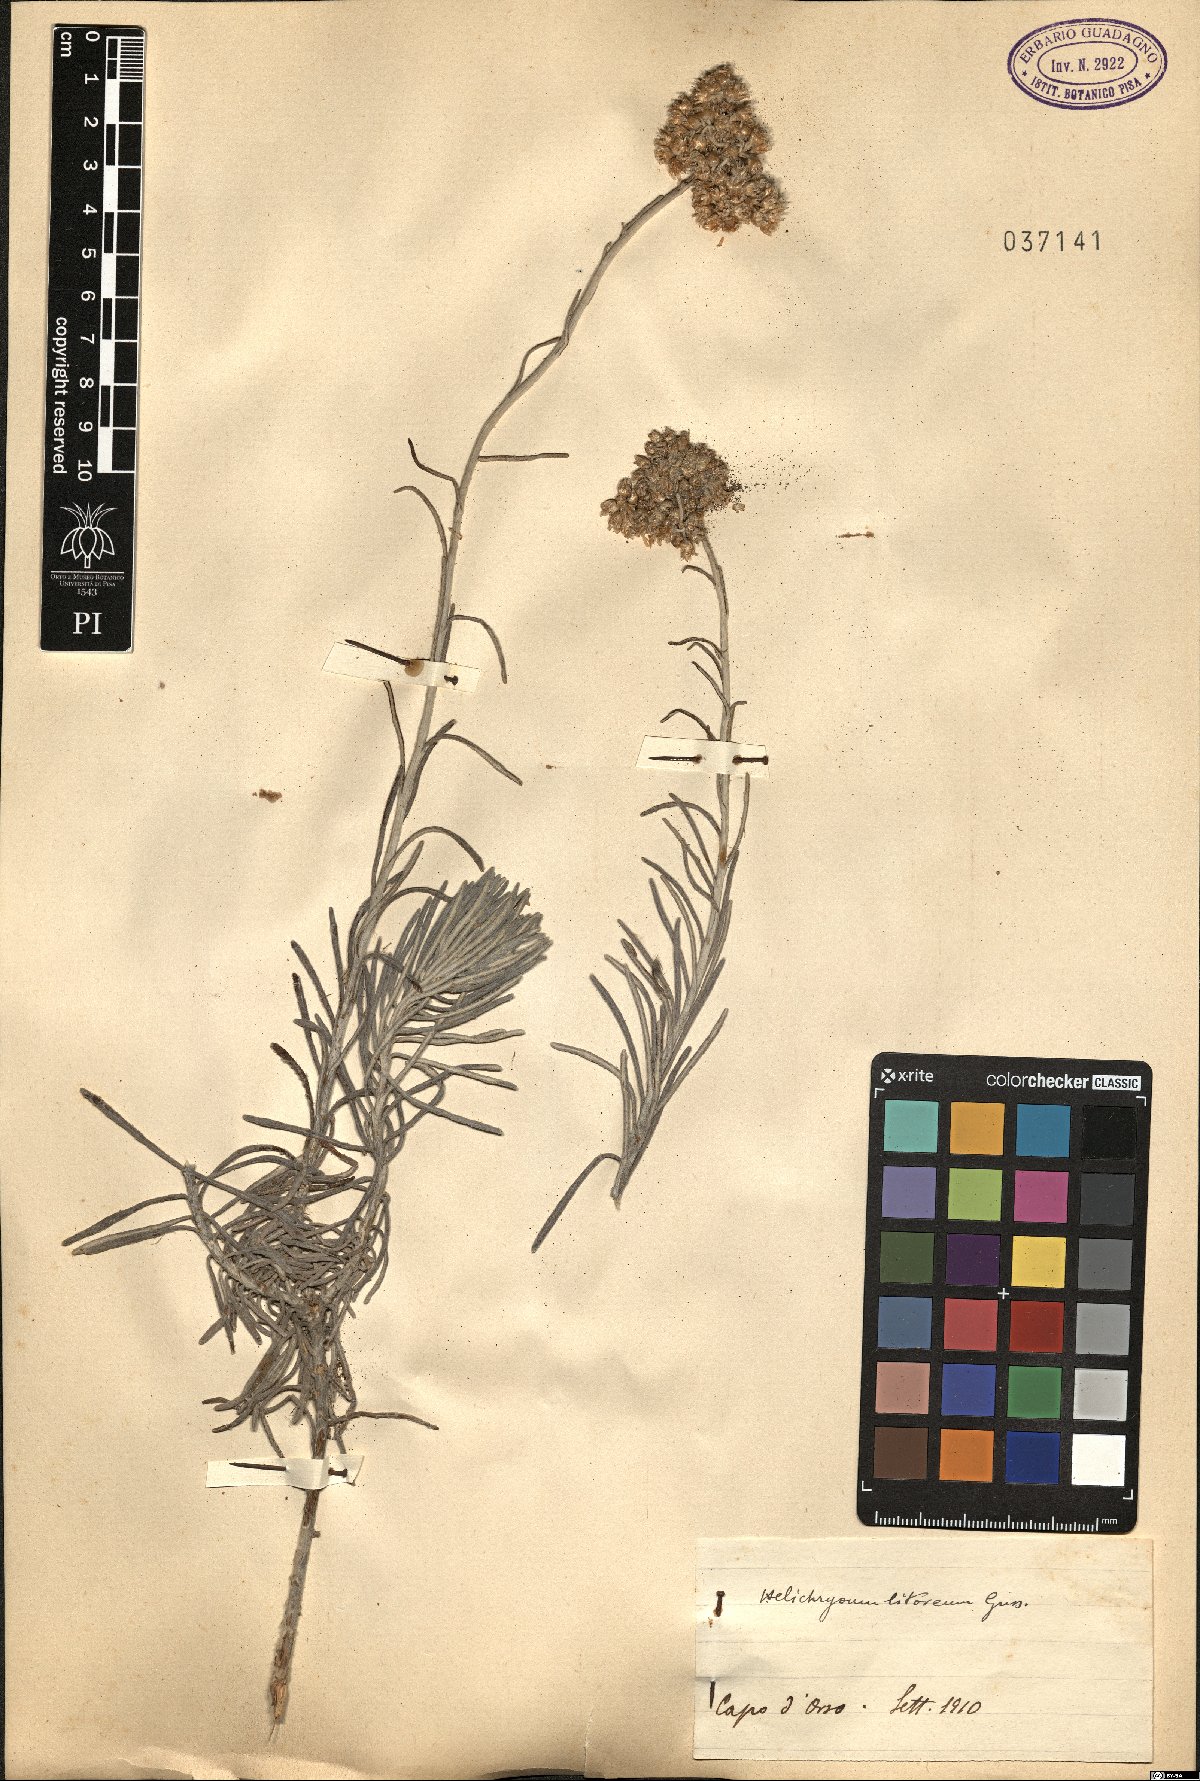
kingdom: Plantae
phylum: Tracheophyta
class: Magnoliopsida
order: Asterales
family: Asteraceae
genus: Helichrysum
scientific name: Helichrysum litoreum
